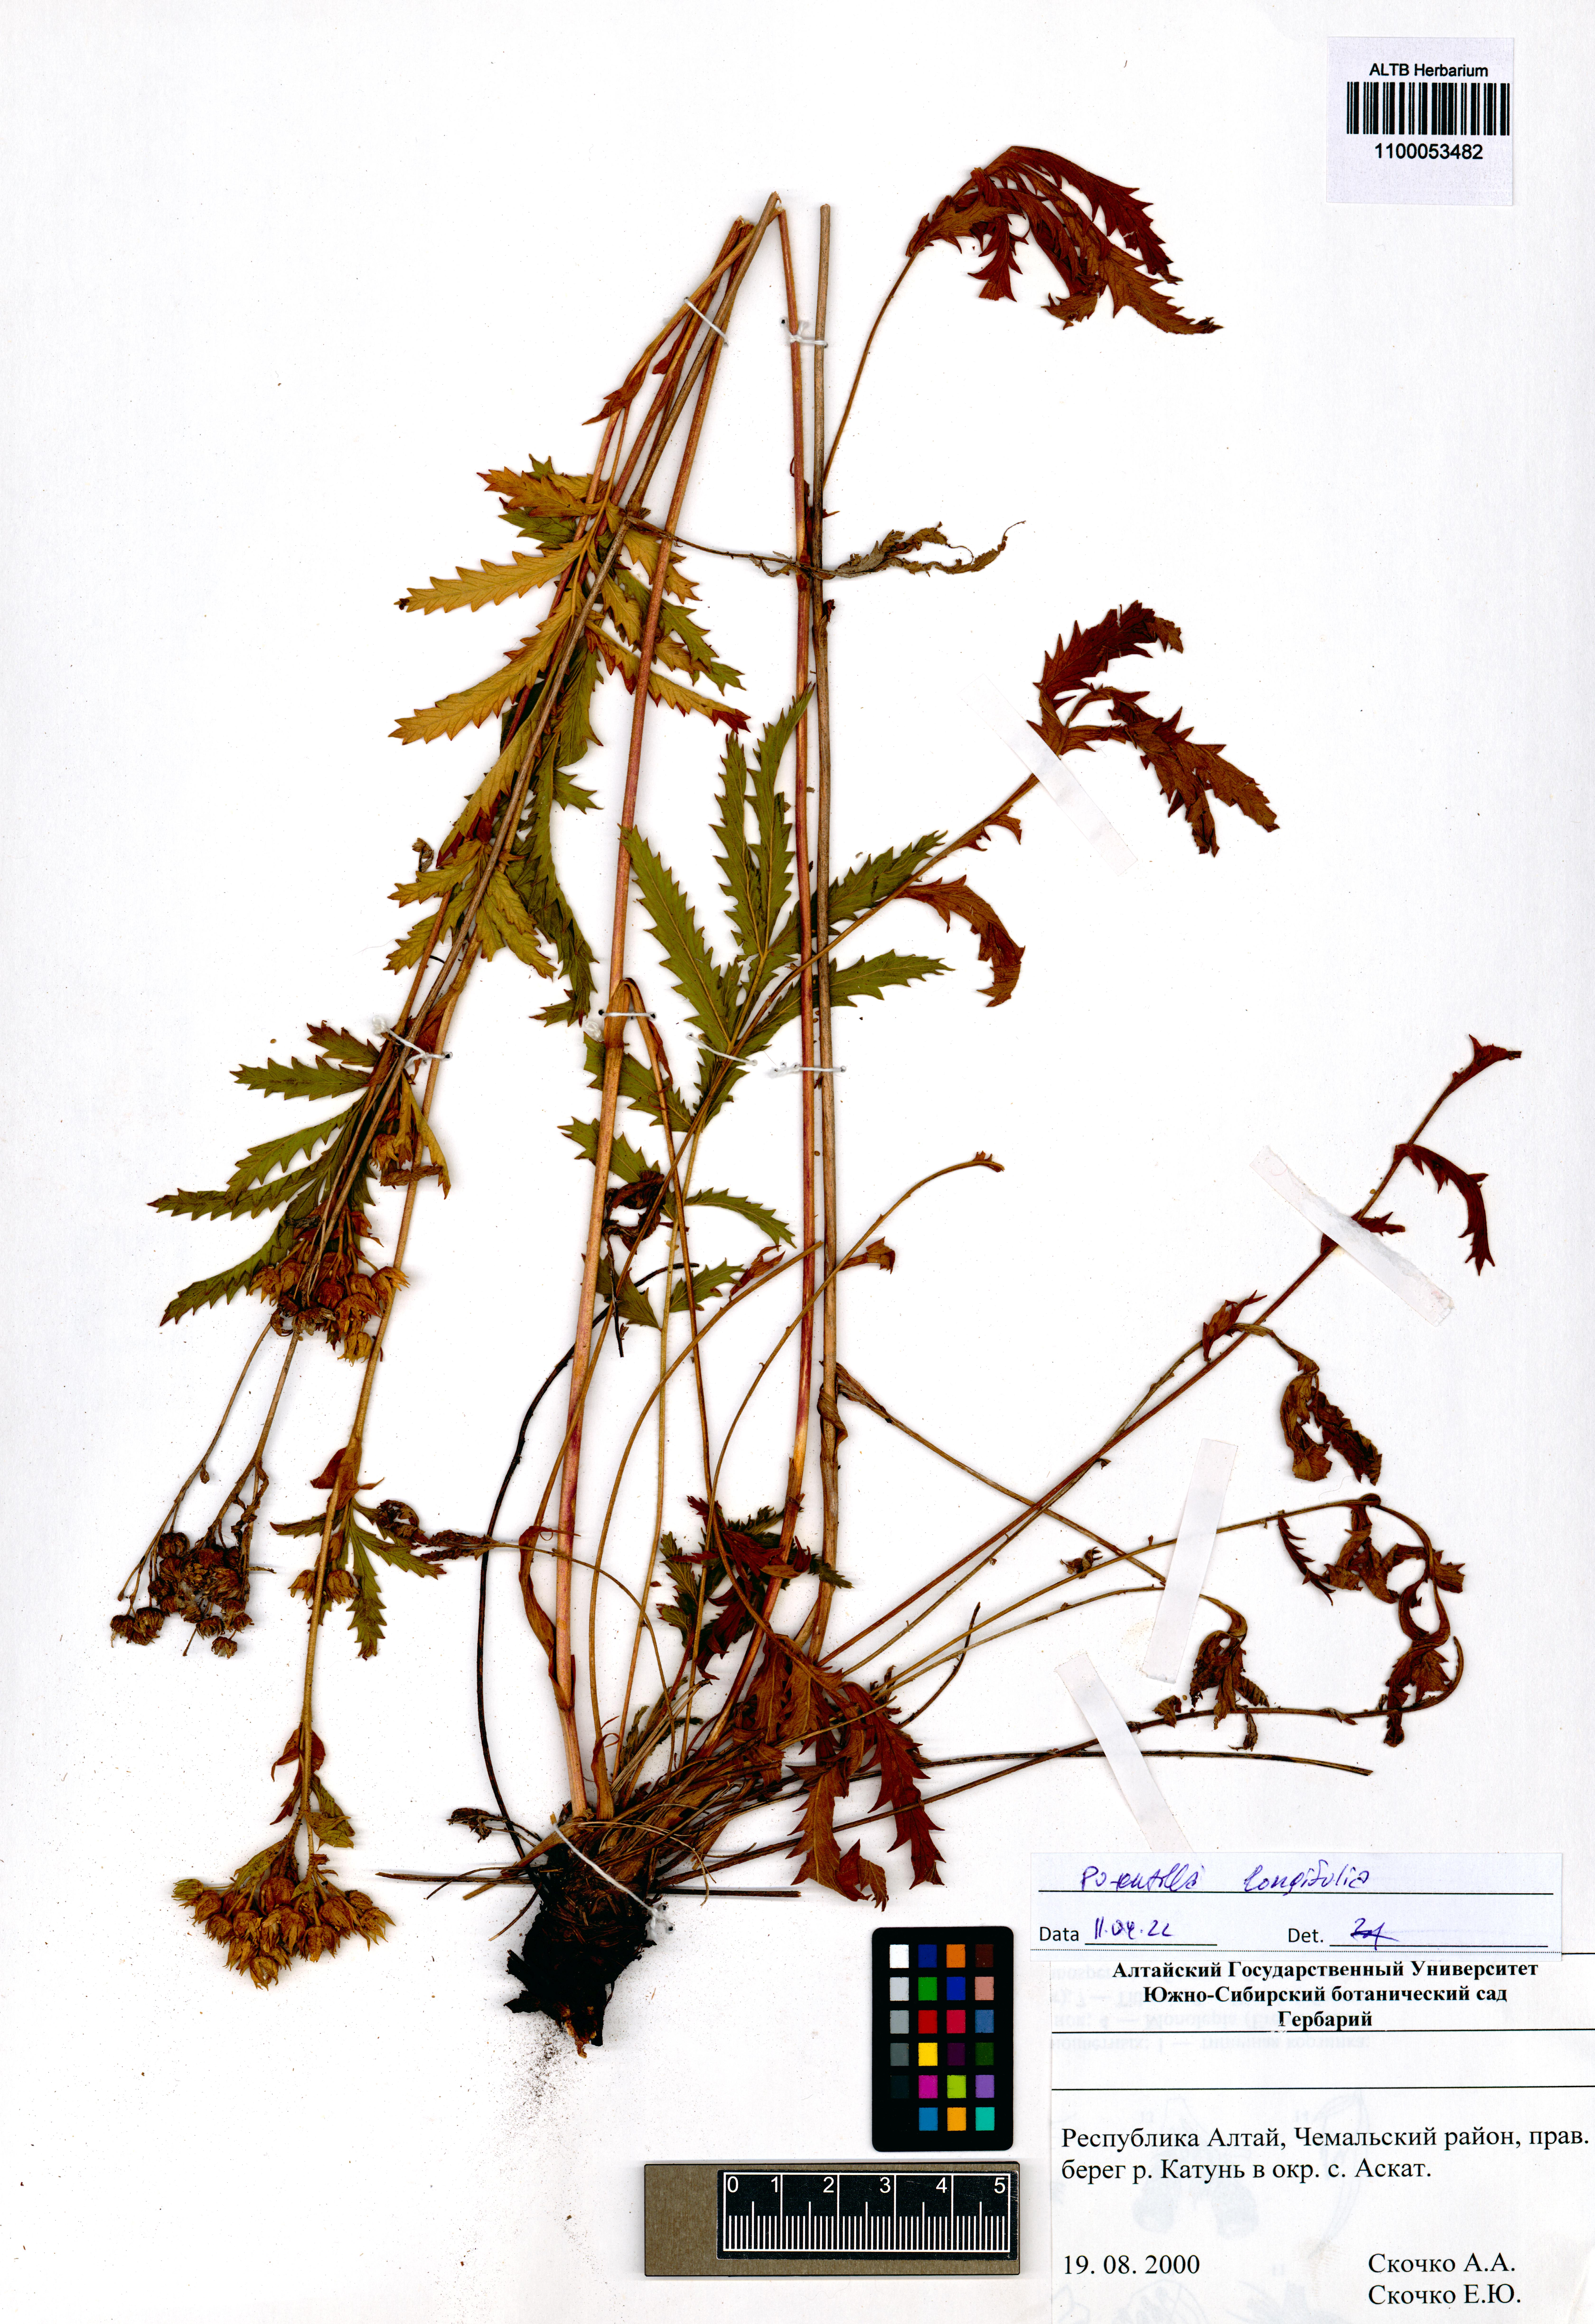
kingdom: Plantae
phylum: Tracheophyta
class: Magnoliopsida
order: Rosales
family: Rosaceae
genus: Potentilla
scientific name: Potentilla longifolia
